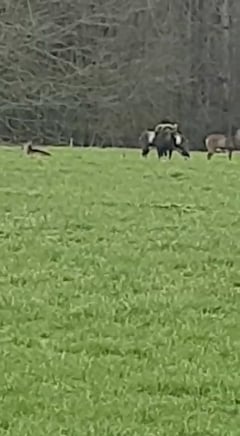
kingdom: Animalia
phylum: Chordata
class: Mammalia
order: Artiodactyla
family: Bovidae
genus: Ovis
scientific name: Ovis ammon
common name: Argali
